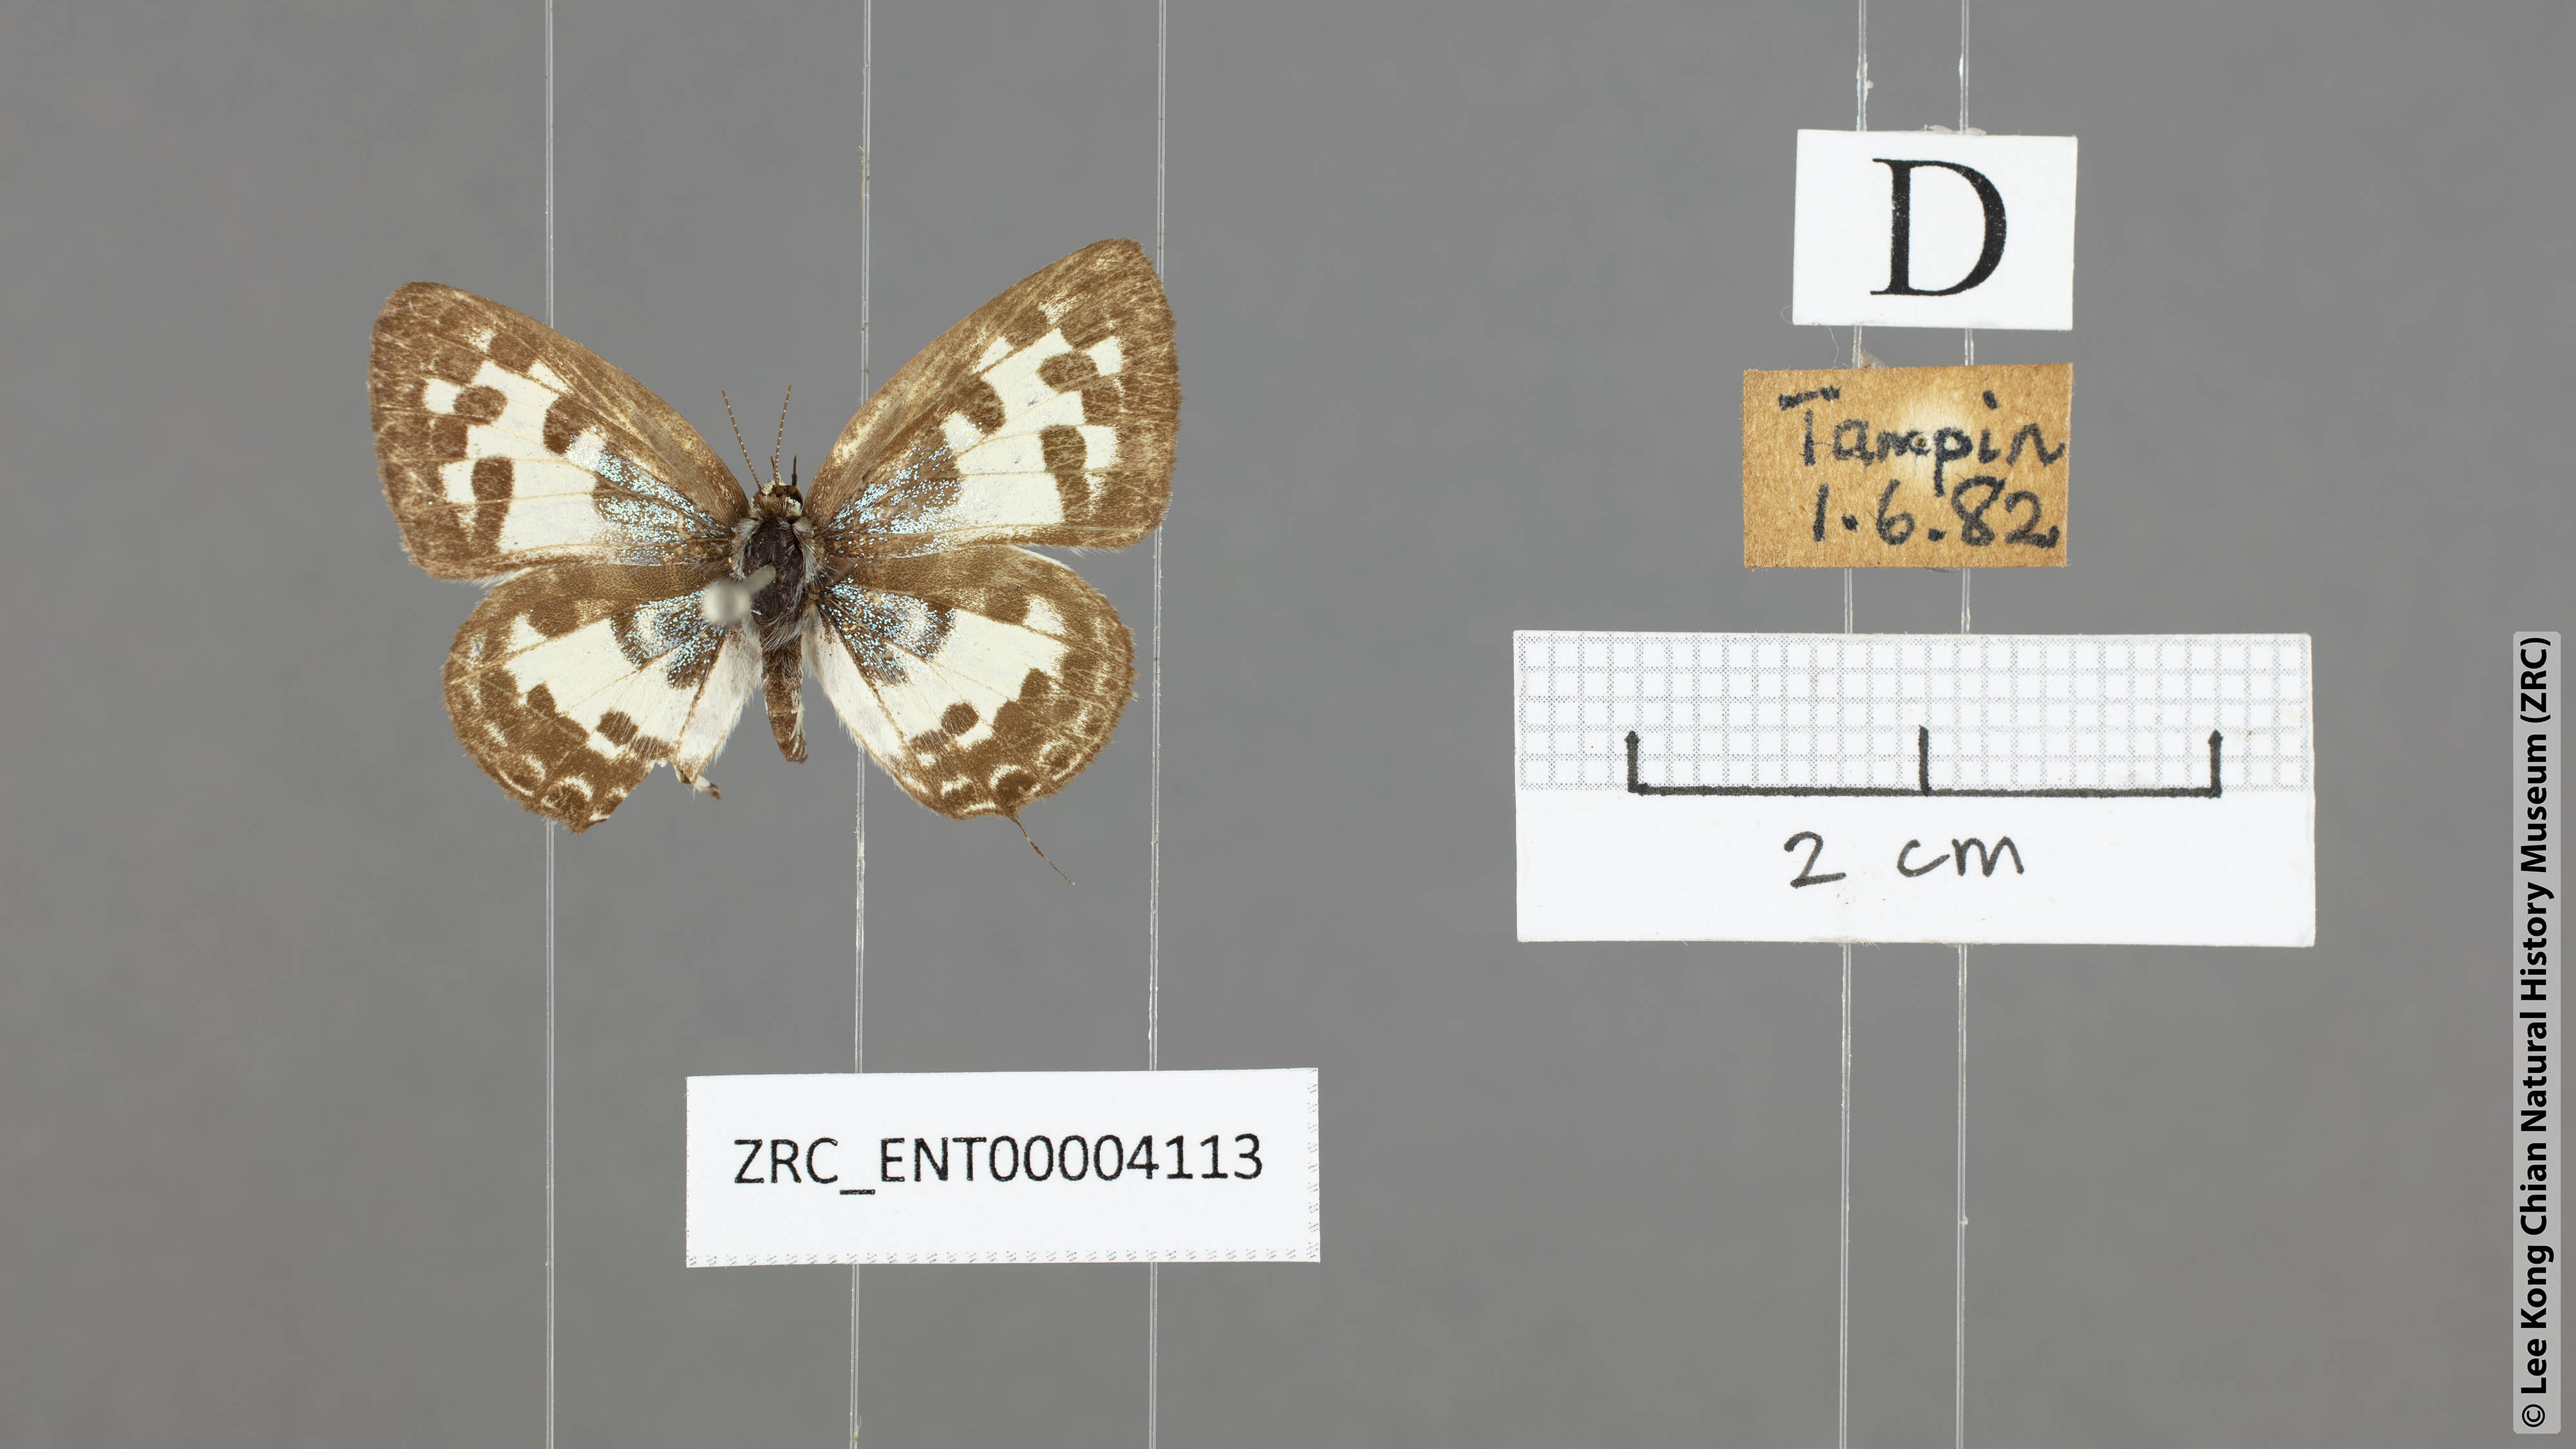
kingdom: Animalia
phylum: Arthropoda
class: Insecta
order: Lepidoptera
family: Lycaenidae
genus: Castalius
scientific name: Castalius rosimon
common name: Common pierrot
